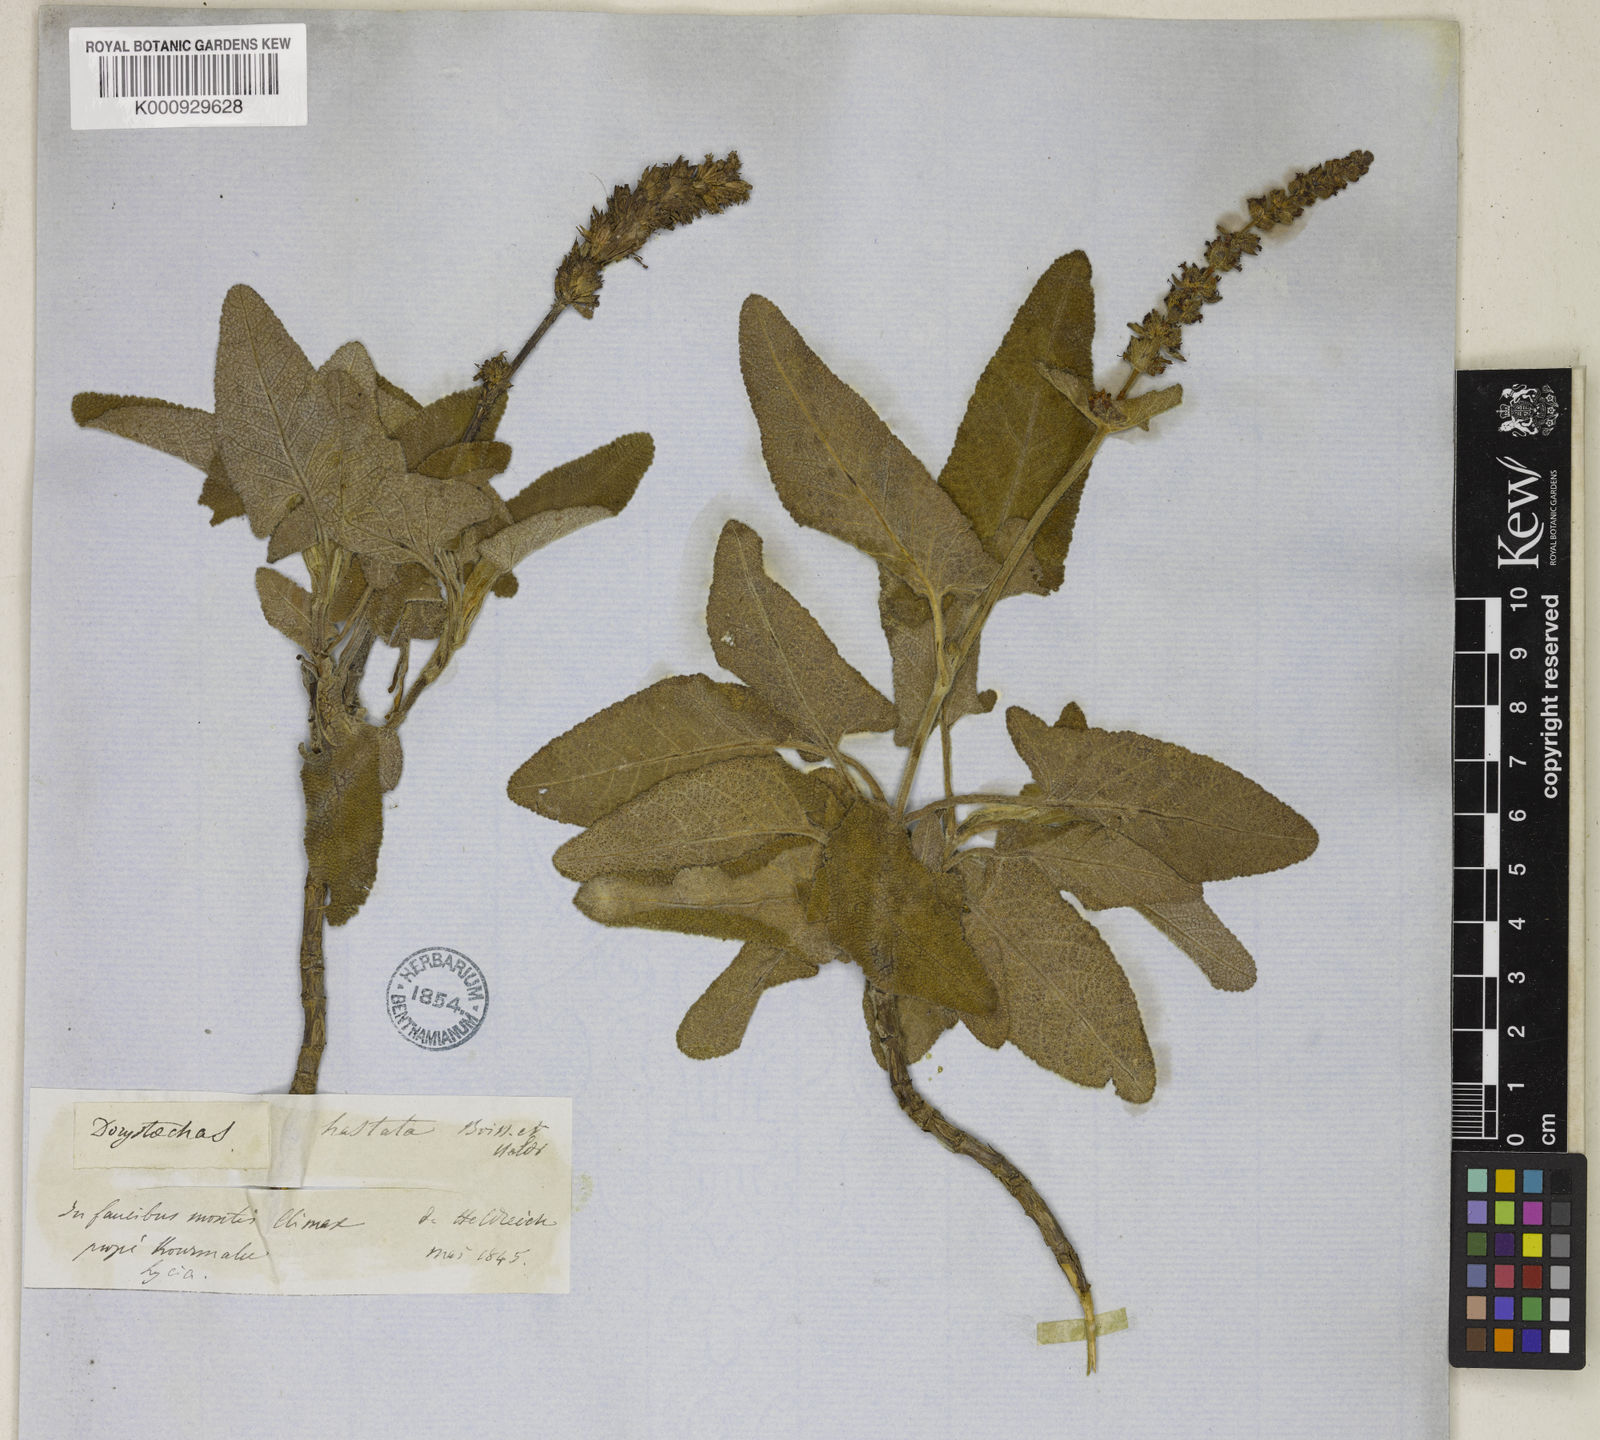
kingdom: Plantae
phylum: Tracheophyta
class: Magnoliopsida
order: Lamiales
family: Lamiaceae
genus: Salvia
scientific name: Salvia dorystaechas
